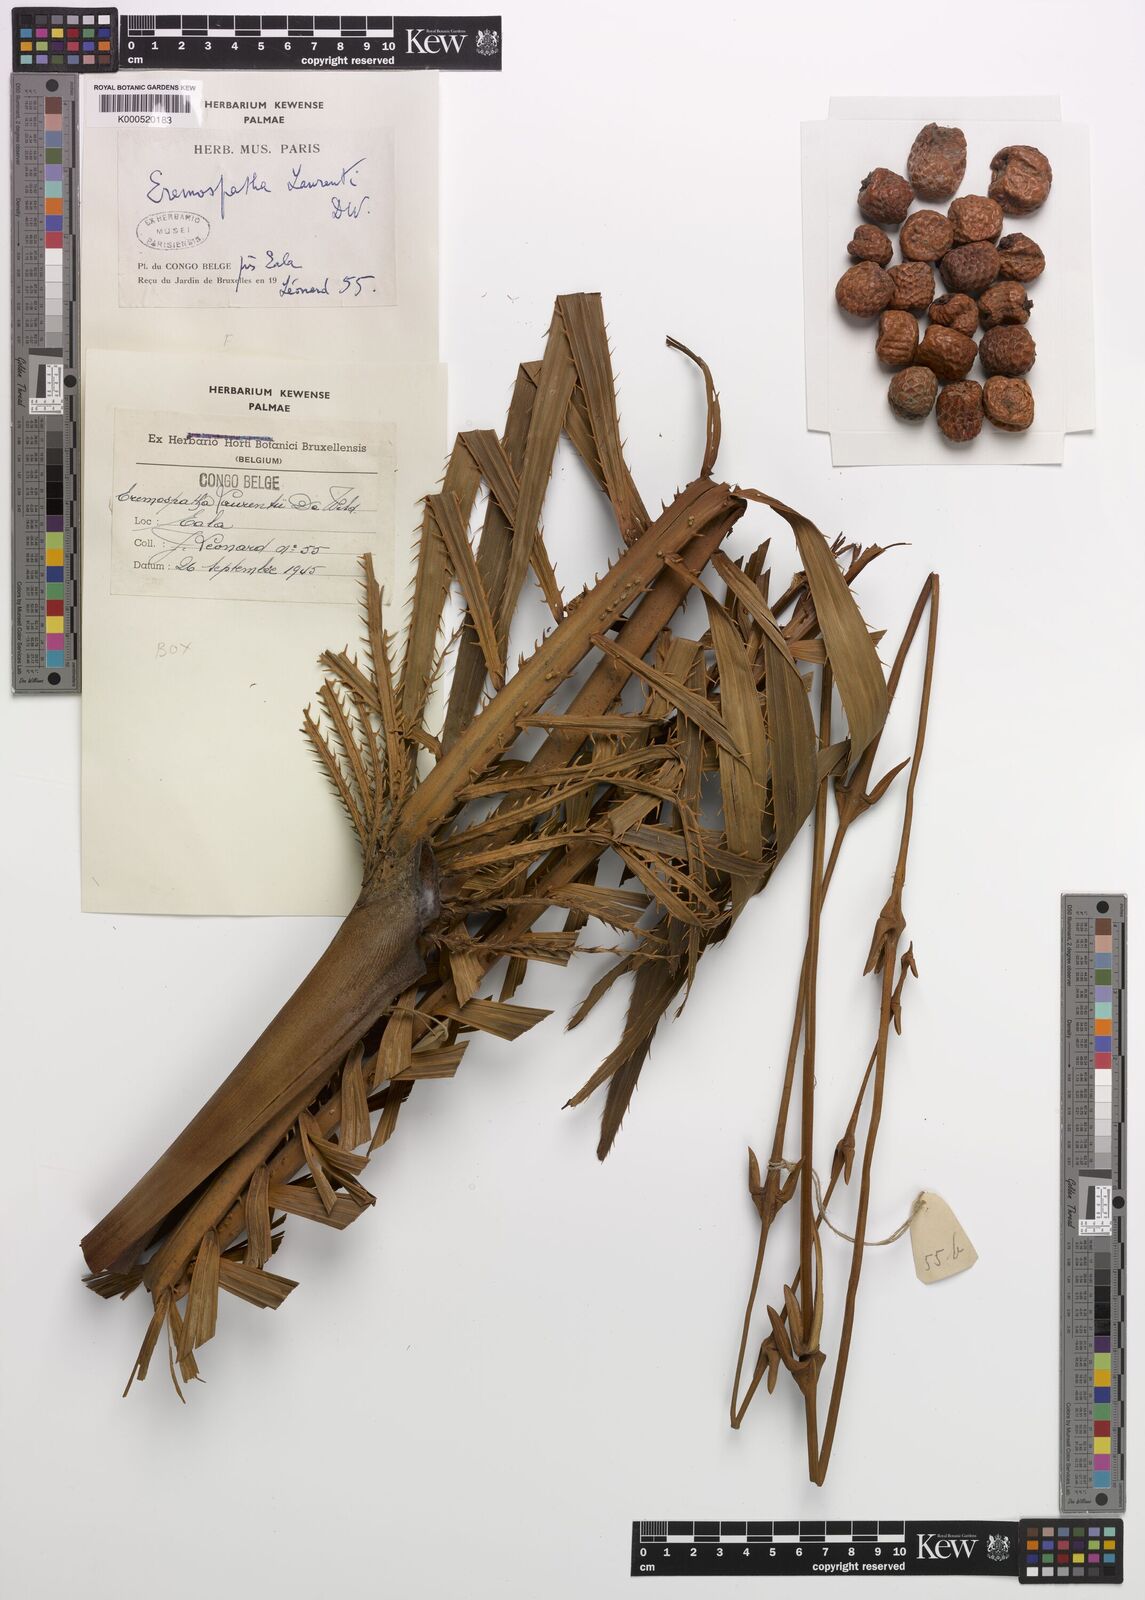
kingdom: Plantae
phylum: Tracheophyta
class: Liliopsida
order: Arecales
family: Arecaceae
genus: Eremospatha
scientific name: Eremospatha laurentii
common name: Rattan palm
